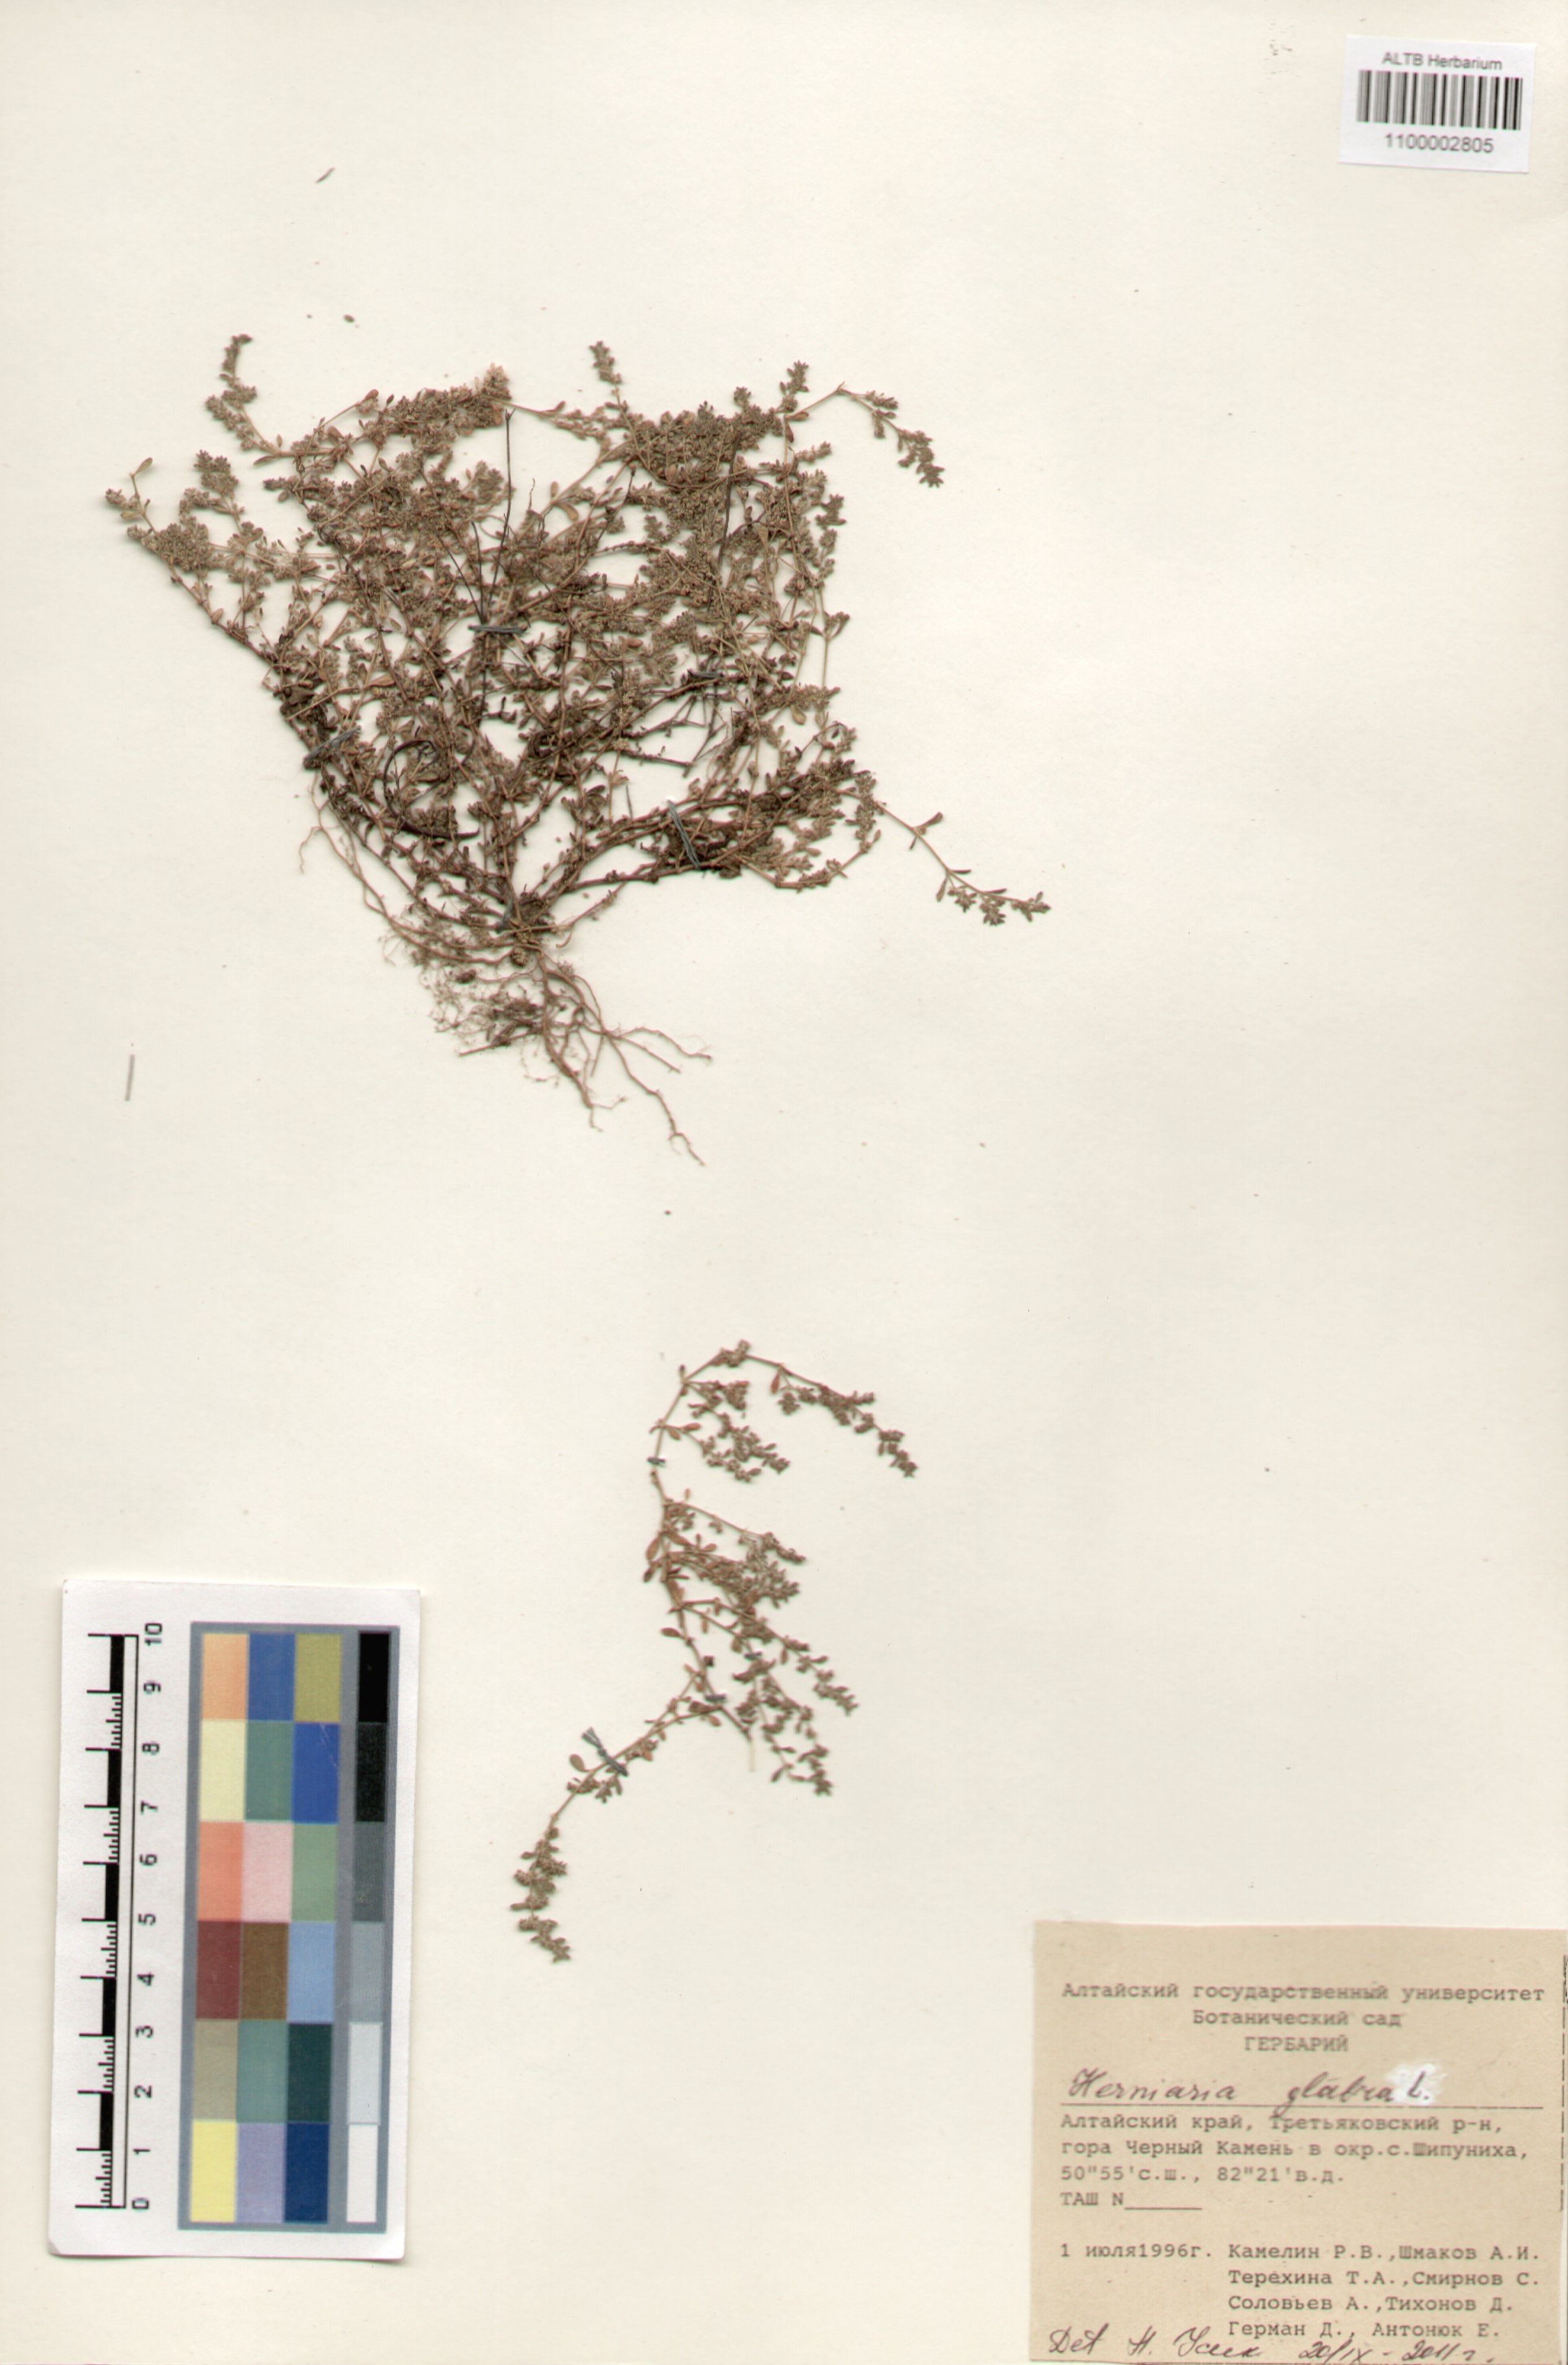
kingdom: Plantae
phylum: Tracheophyta
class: Magnoliopsida
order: Caryophyllales
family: Caryophyllaceae
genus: Herniaria
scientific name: Herniaria glabra
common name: Smooth rupturewort
